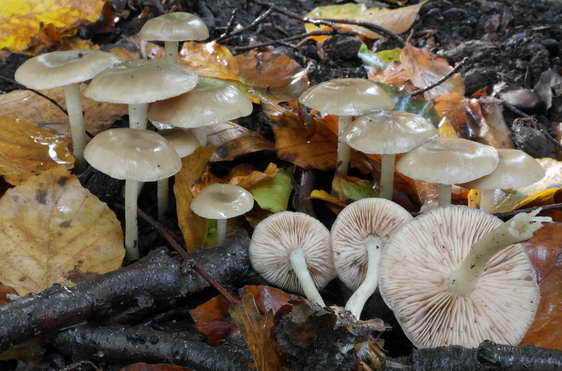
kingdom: Fungi
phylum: Basidiomycota
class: Agaricomycetes
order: Agaricales
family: Entolomataceae
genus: Entoloma
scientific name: Entoloma rhodopolium
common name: skov-rødblad
